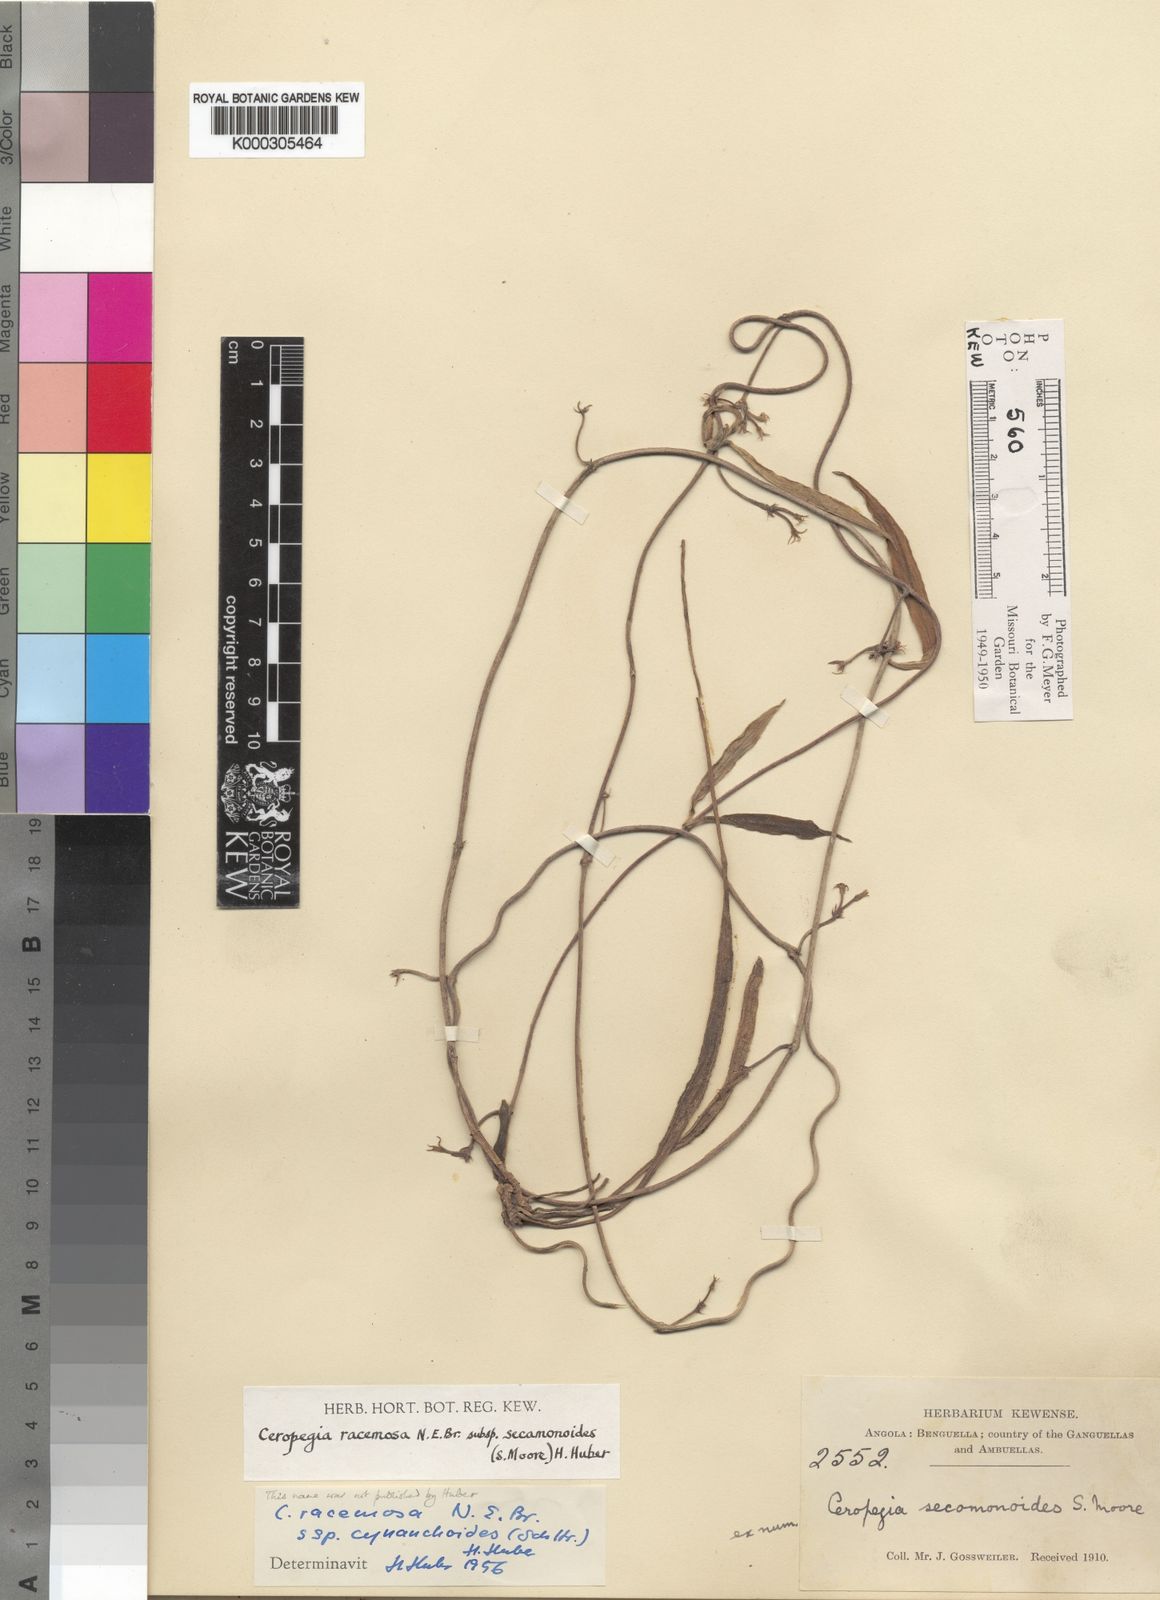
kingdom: Plantae
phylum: Tracheophyta
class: Magnoliopsida
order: Gentianales
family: Apocynaceae
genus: Ceropegia
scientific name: Ceropegia racemosa
